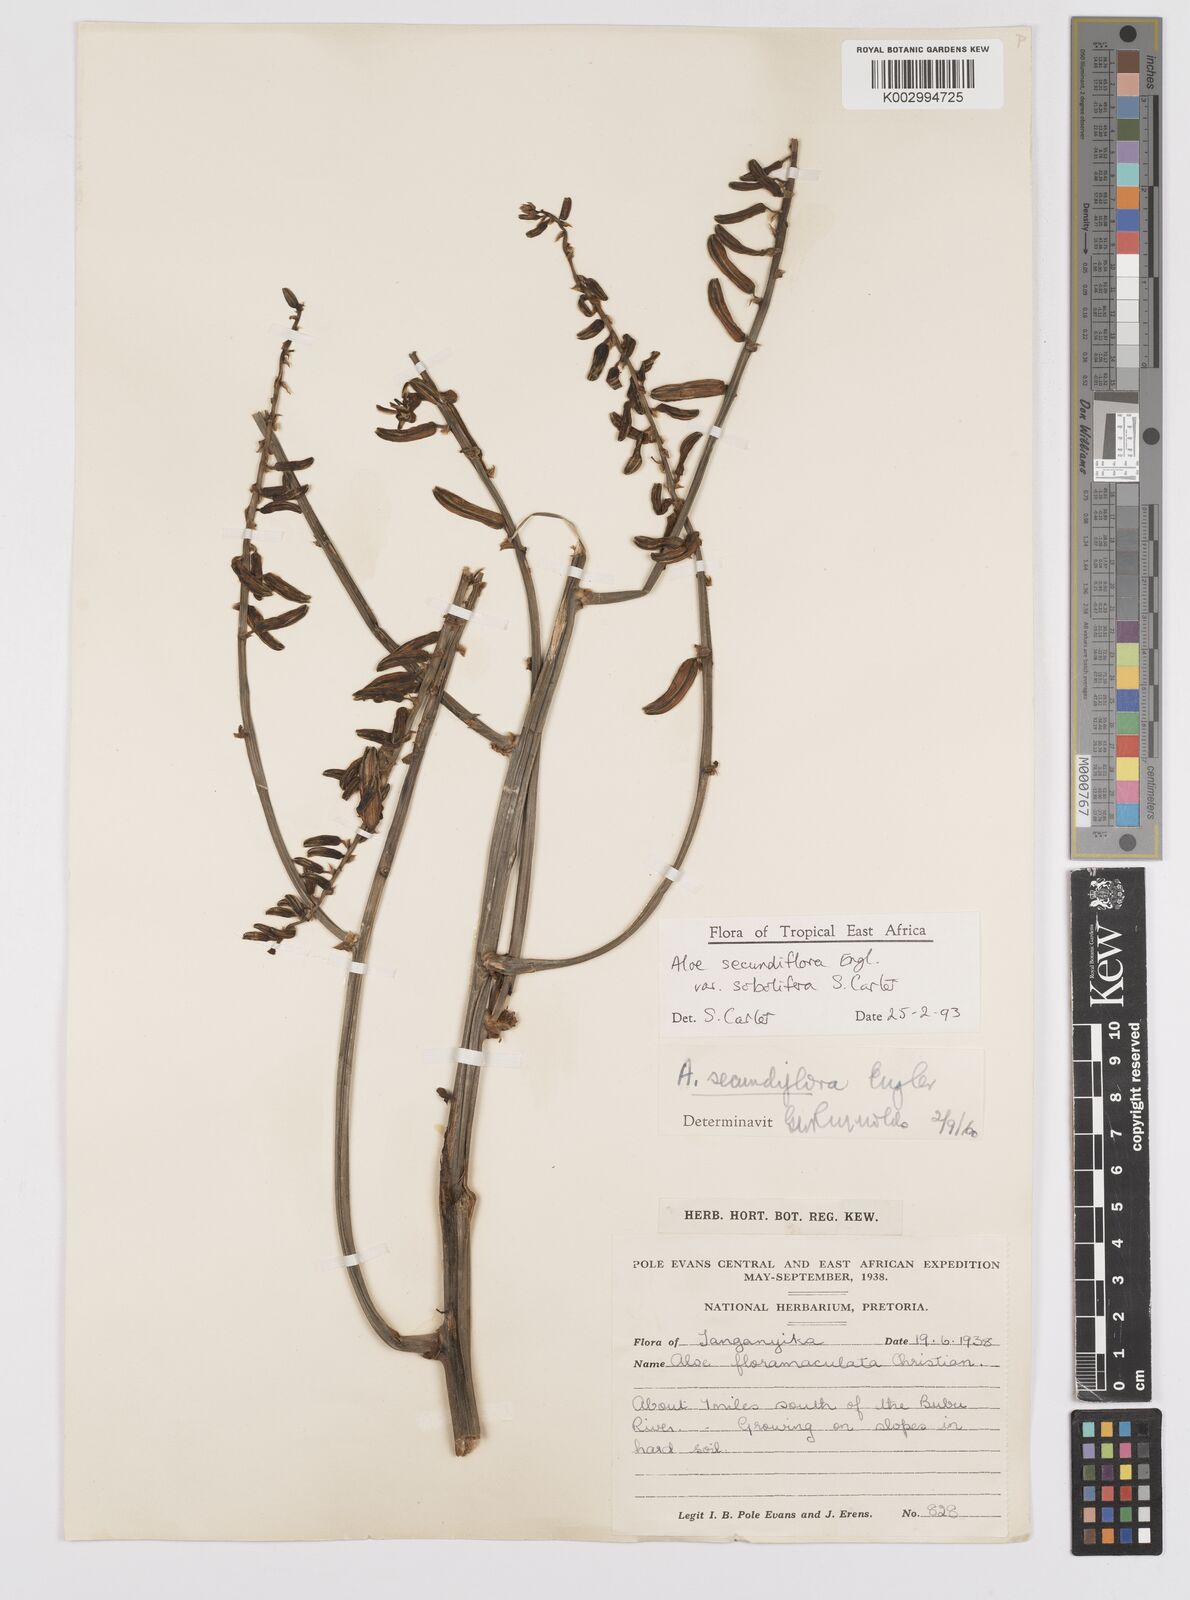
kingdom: Plantae
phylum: Tracheophyta
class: Liliopsida
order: Asparagales
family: Asphodelaceae
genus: Aloe
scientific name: Aloe sobolifera
